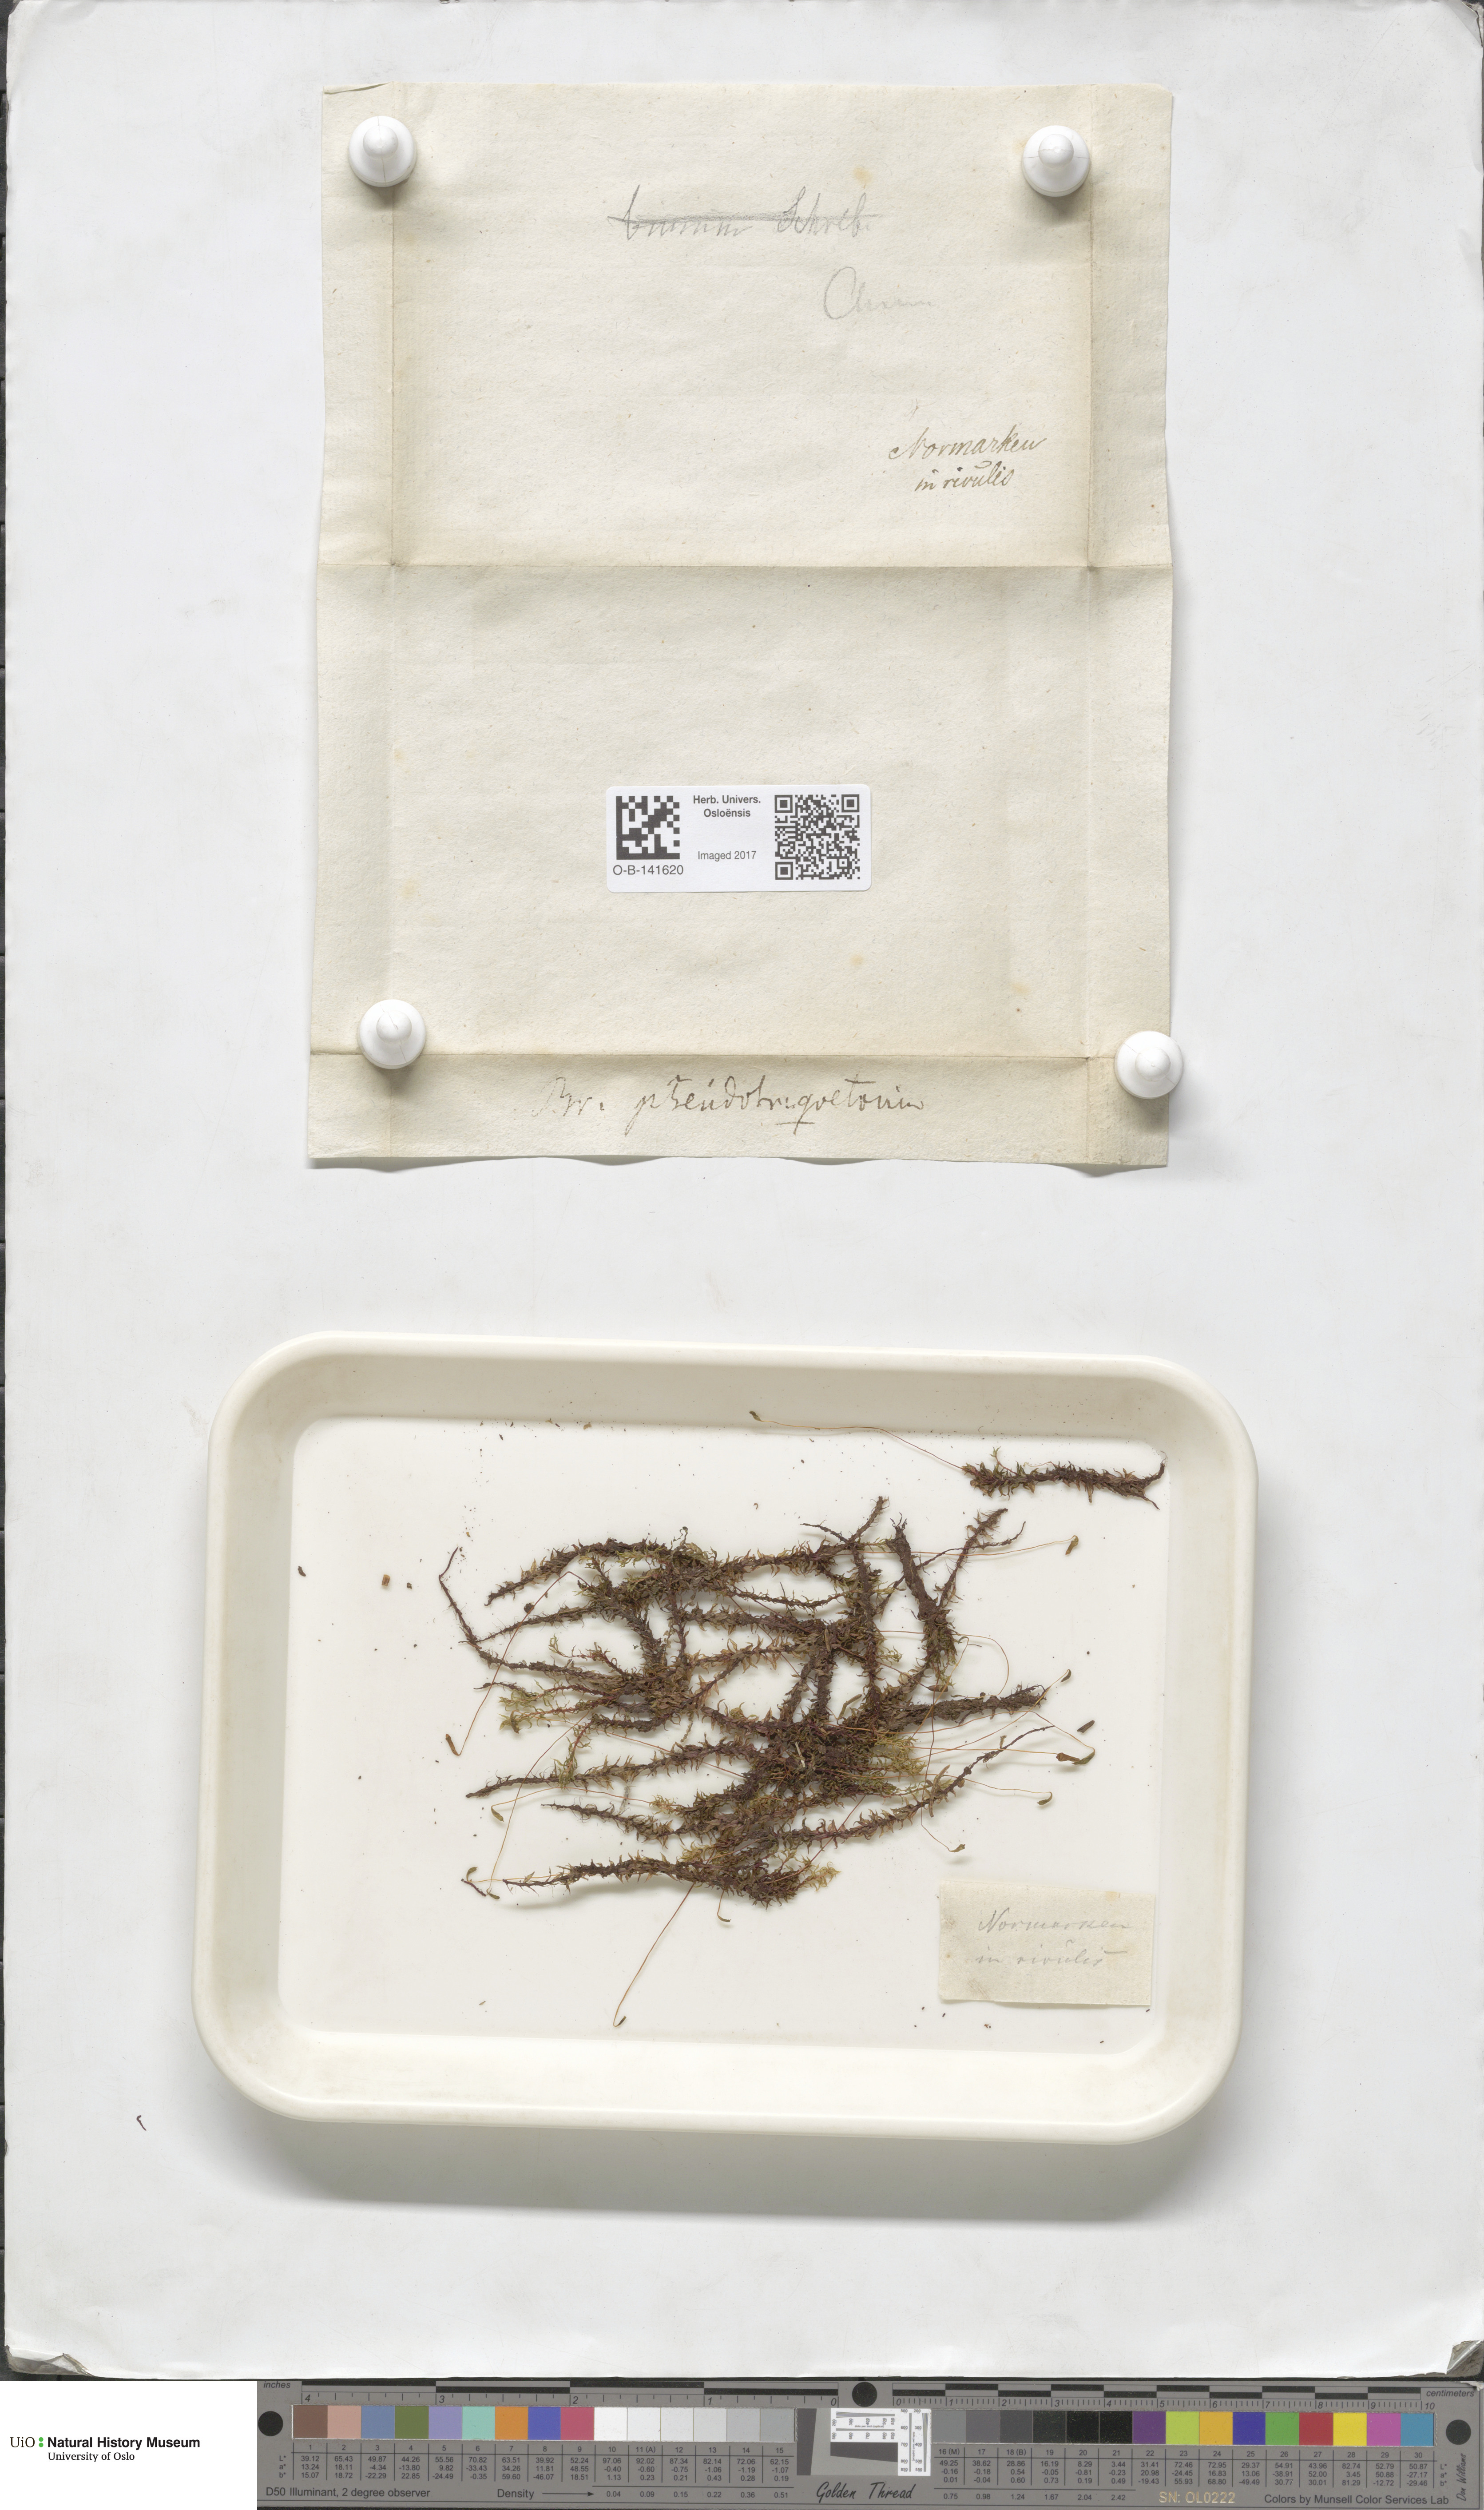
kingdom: Plantae
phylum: Bryophyta
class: Bryopsida
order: Bryales
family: Bryaceae
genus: Ptychostomum
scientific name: Ptychostomum pseudotriquetrum
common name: Long-leaved thread moss
